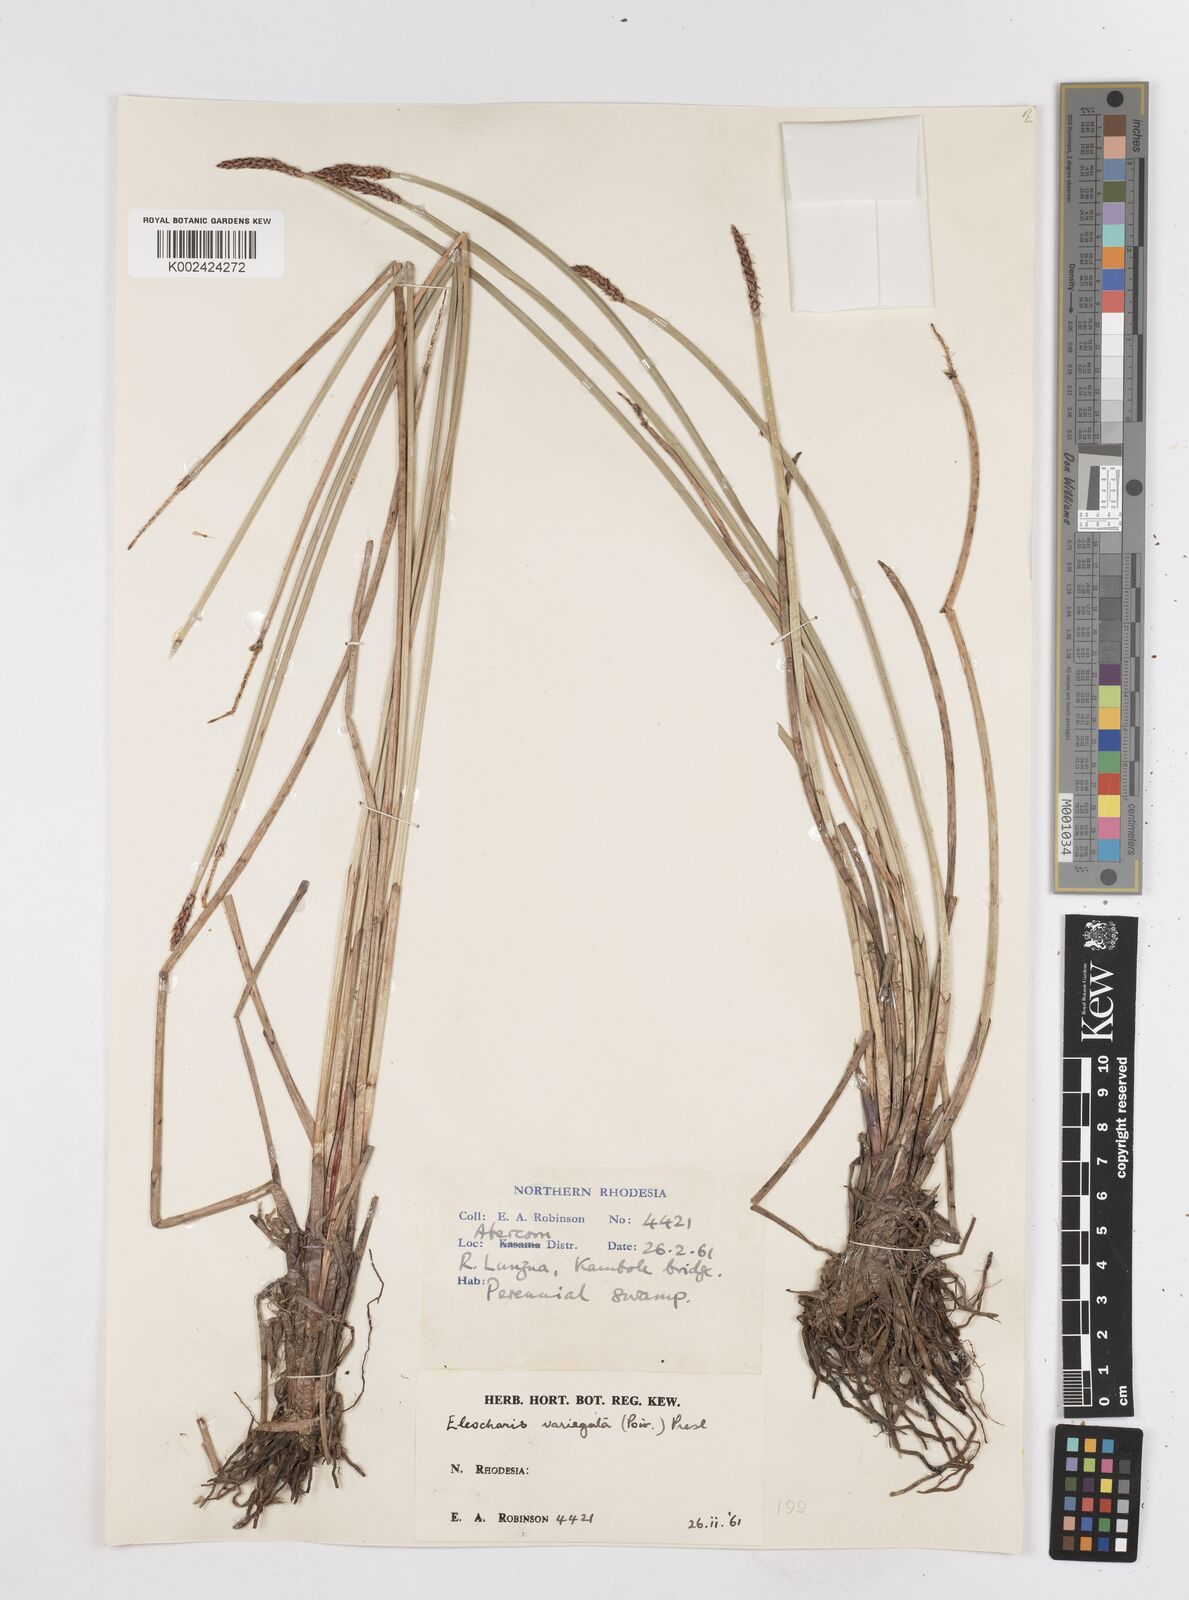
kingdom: Plantae
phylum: Tracheophyta
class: Liliopsida
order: Poales
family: Cyperaceae
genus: Eleocharis
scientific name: Eleocharis variegata
